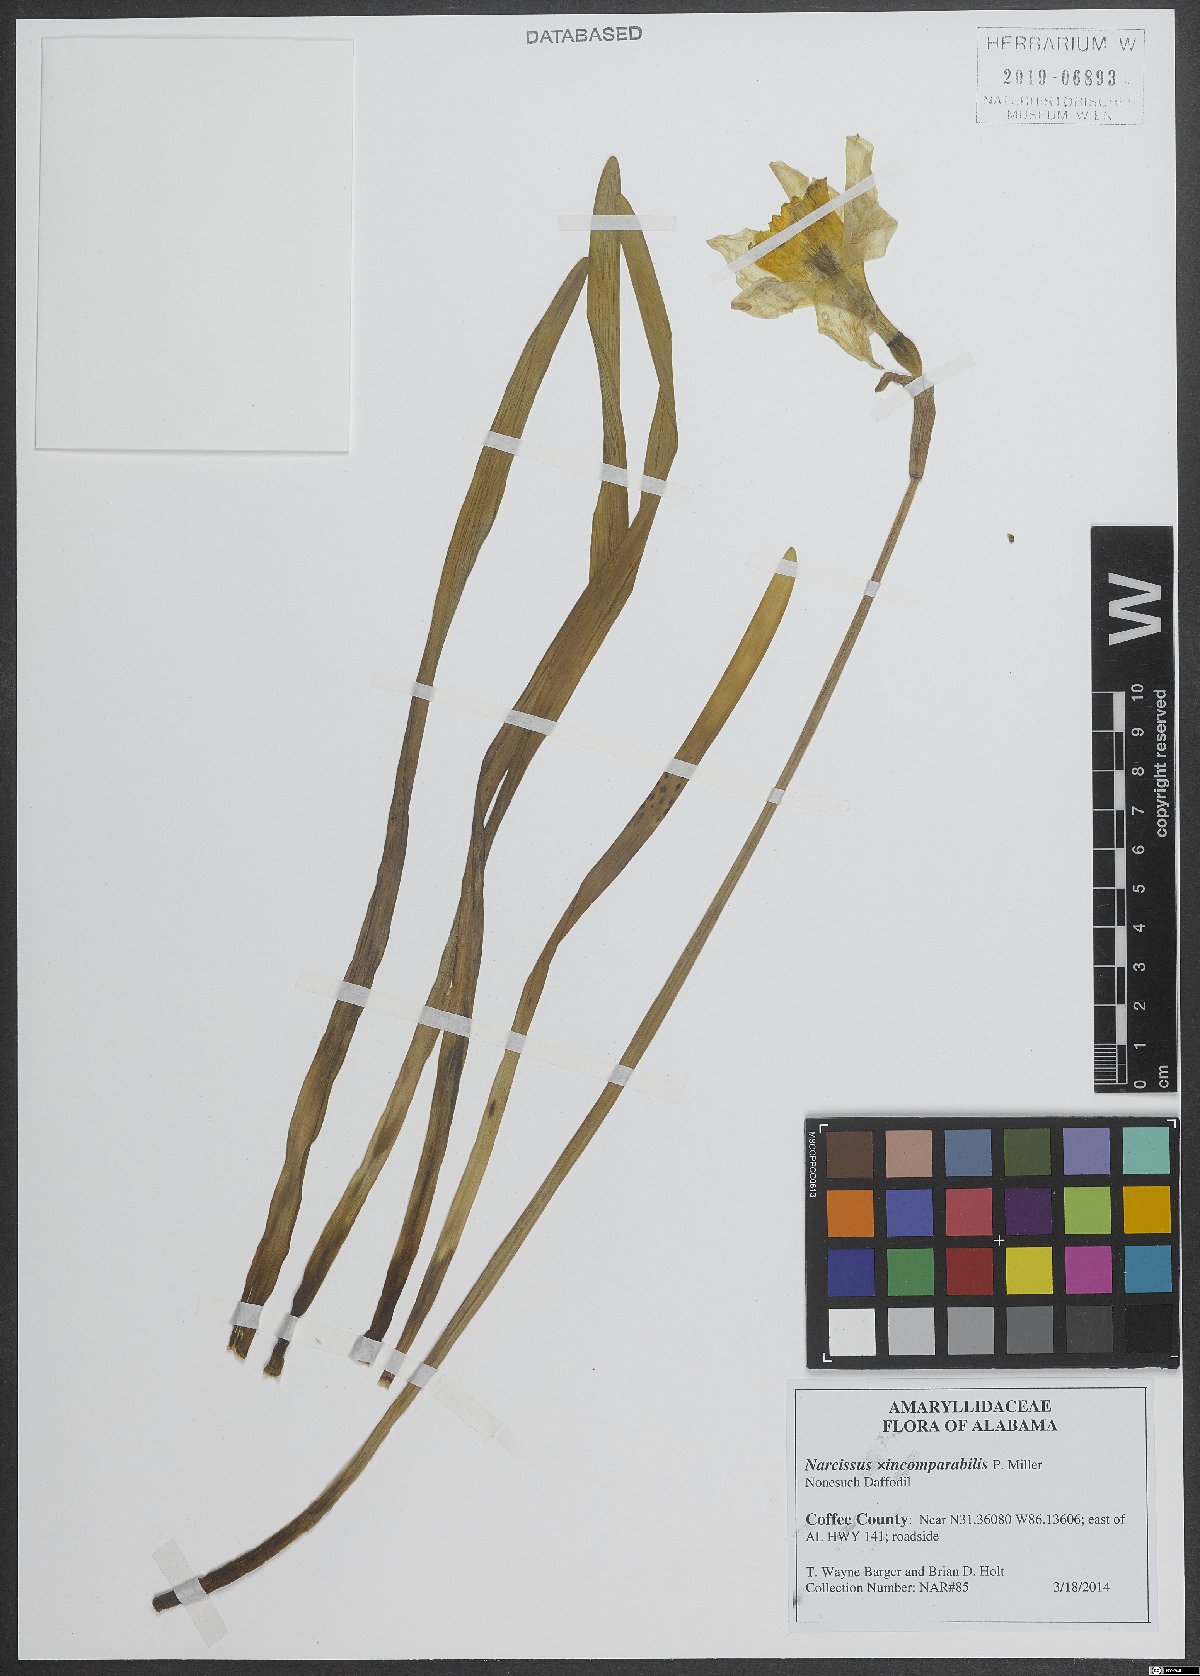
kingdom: Plantae
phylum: Tracheophyta
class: Liliopsida
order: Asparagales
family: Amaryllidaceae
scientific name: Amaryllidaceae
